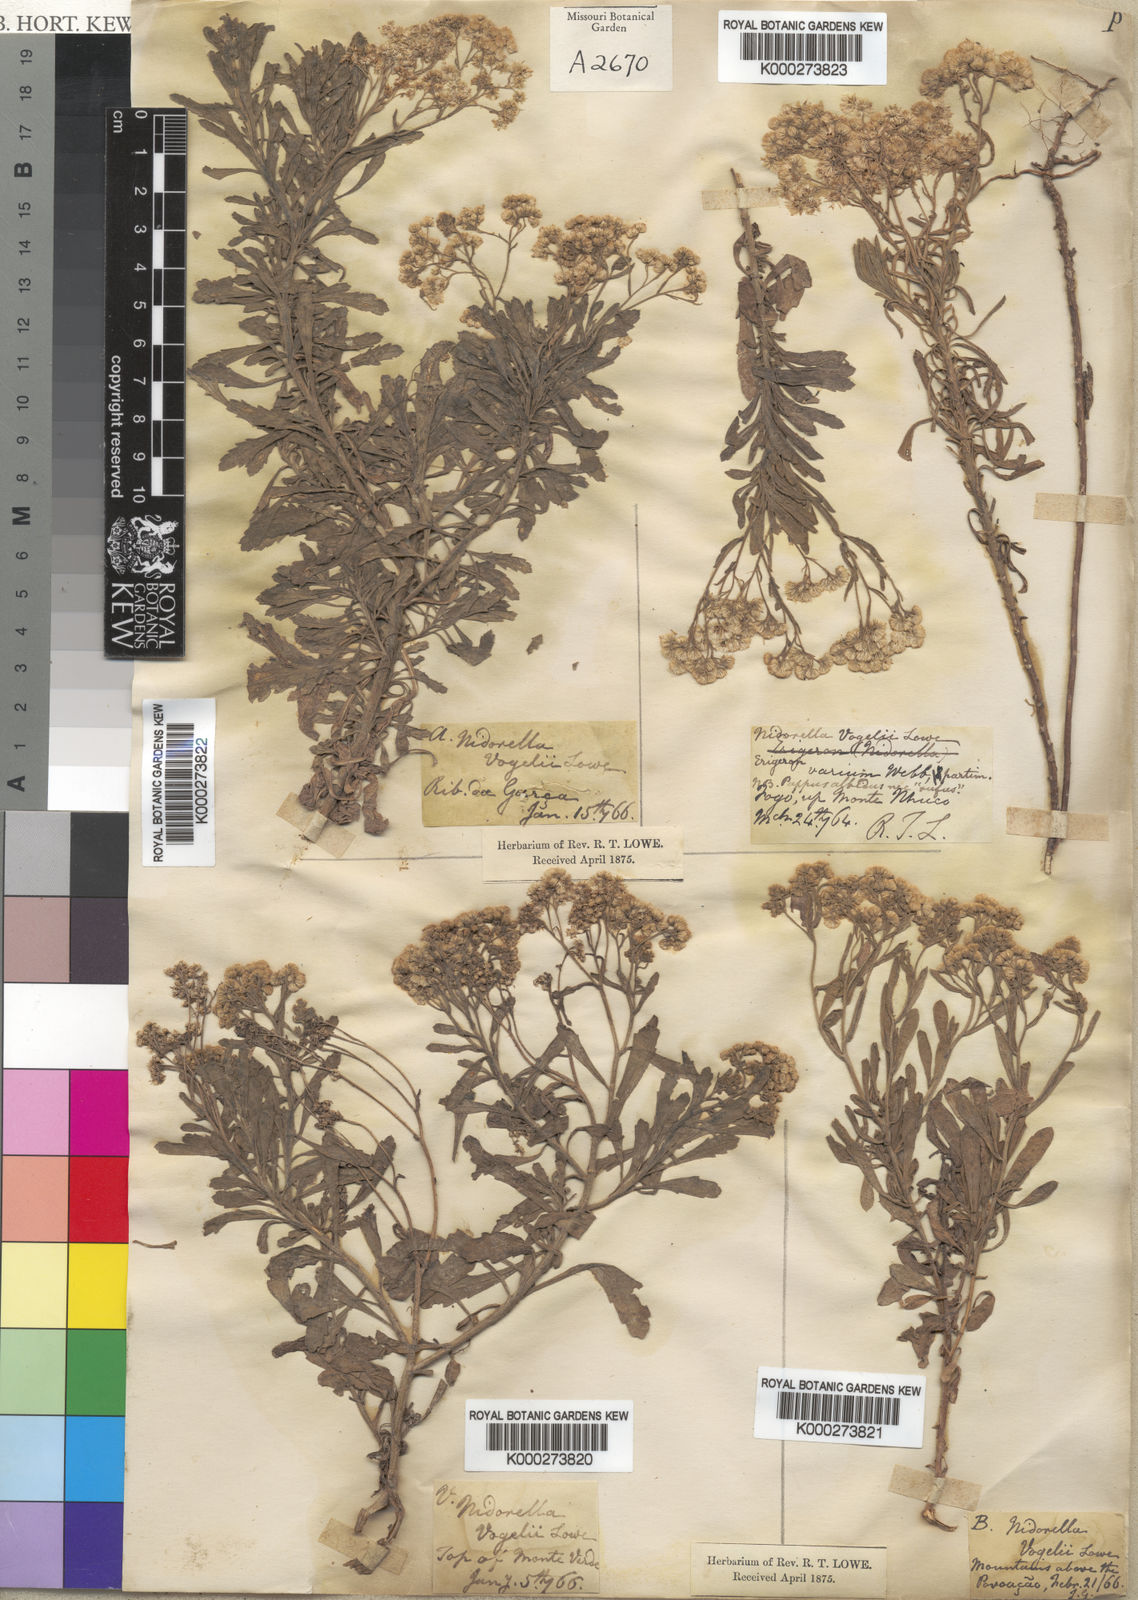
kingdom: Plantae
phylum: Tracheophyta
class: Magnoliopsida
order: Asterales
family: Asteraceae
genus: Nidorella
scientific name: Nidorella
